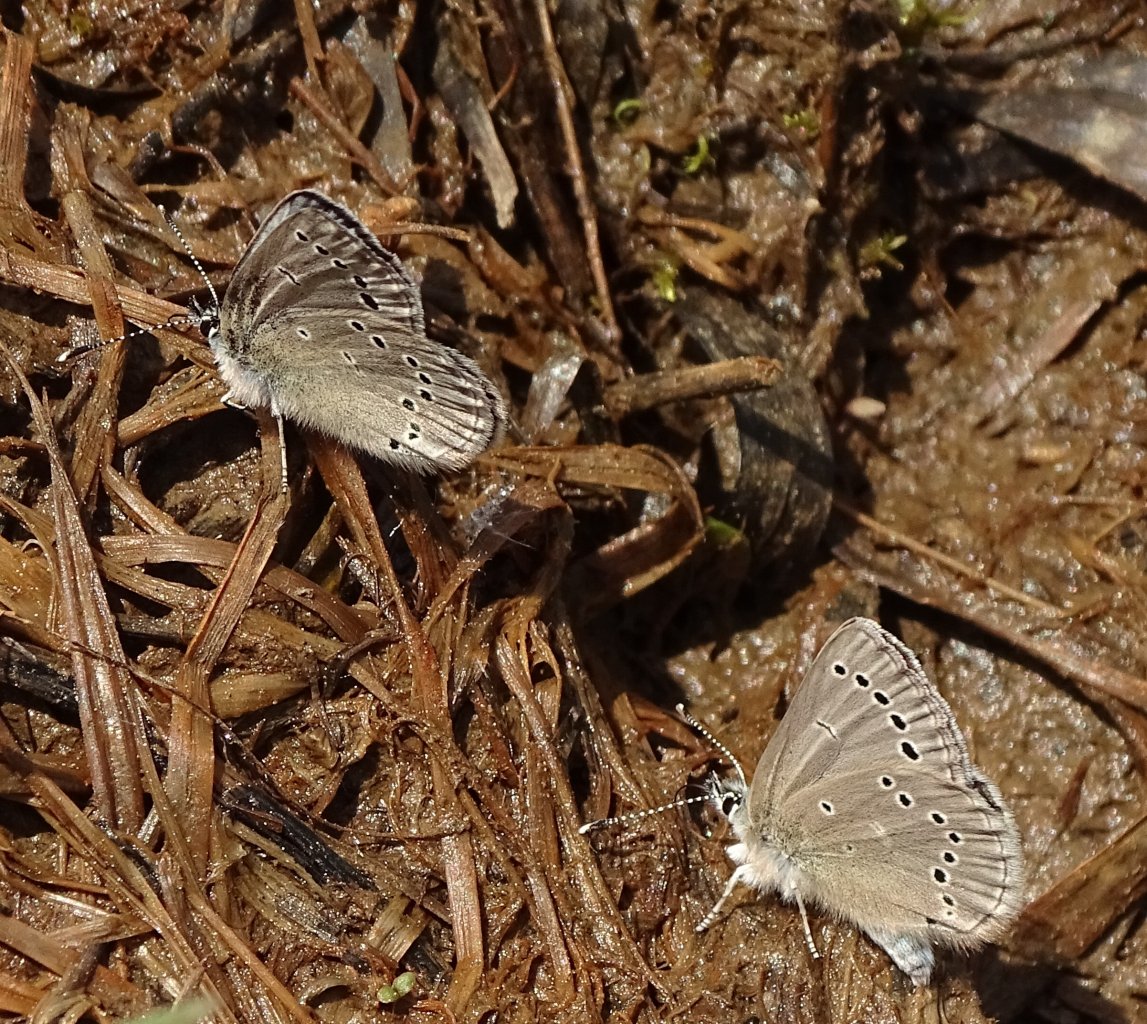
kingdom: Animalia
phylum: Arthropoda
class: Insecta
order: Lepidoptera
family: Lycaenidae
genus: Glaucopsyche
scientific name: Glaucopsyche lygdamus
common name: Silvery Blue
